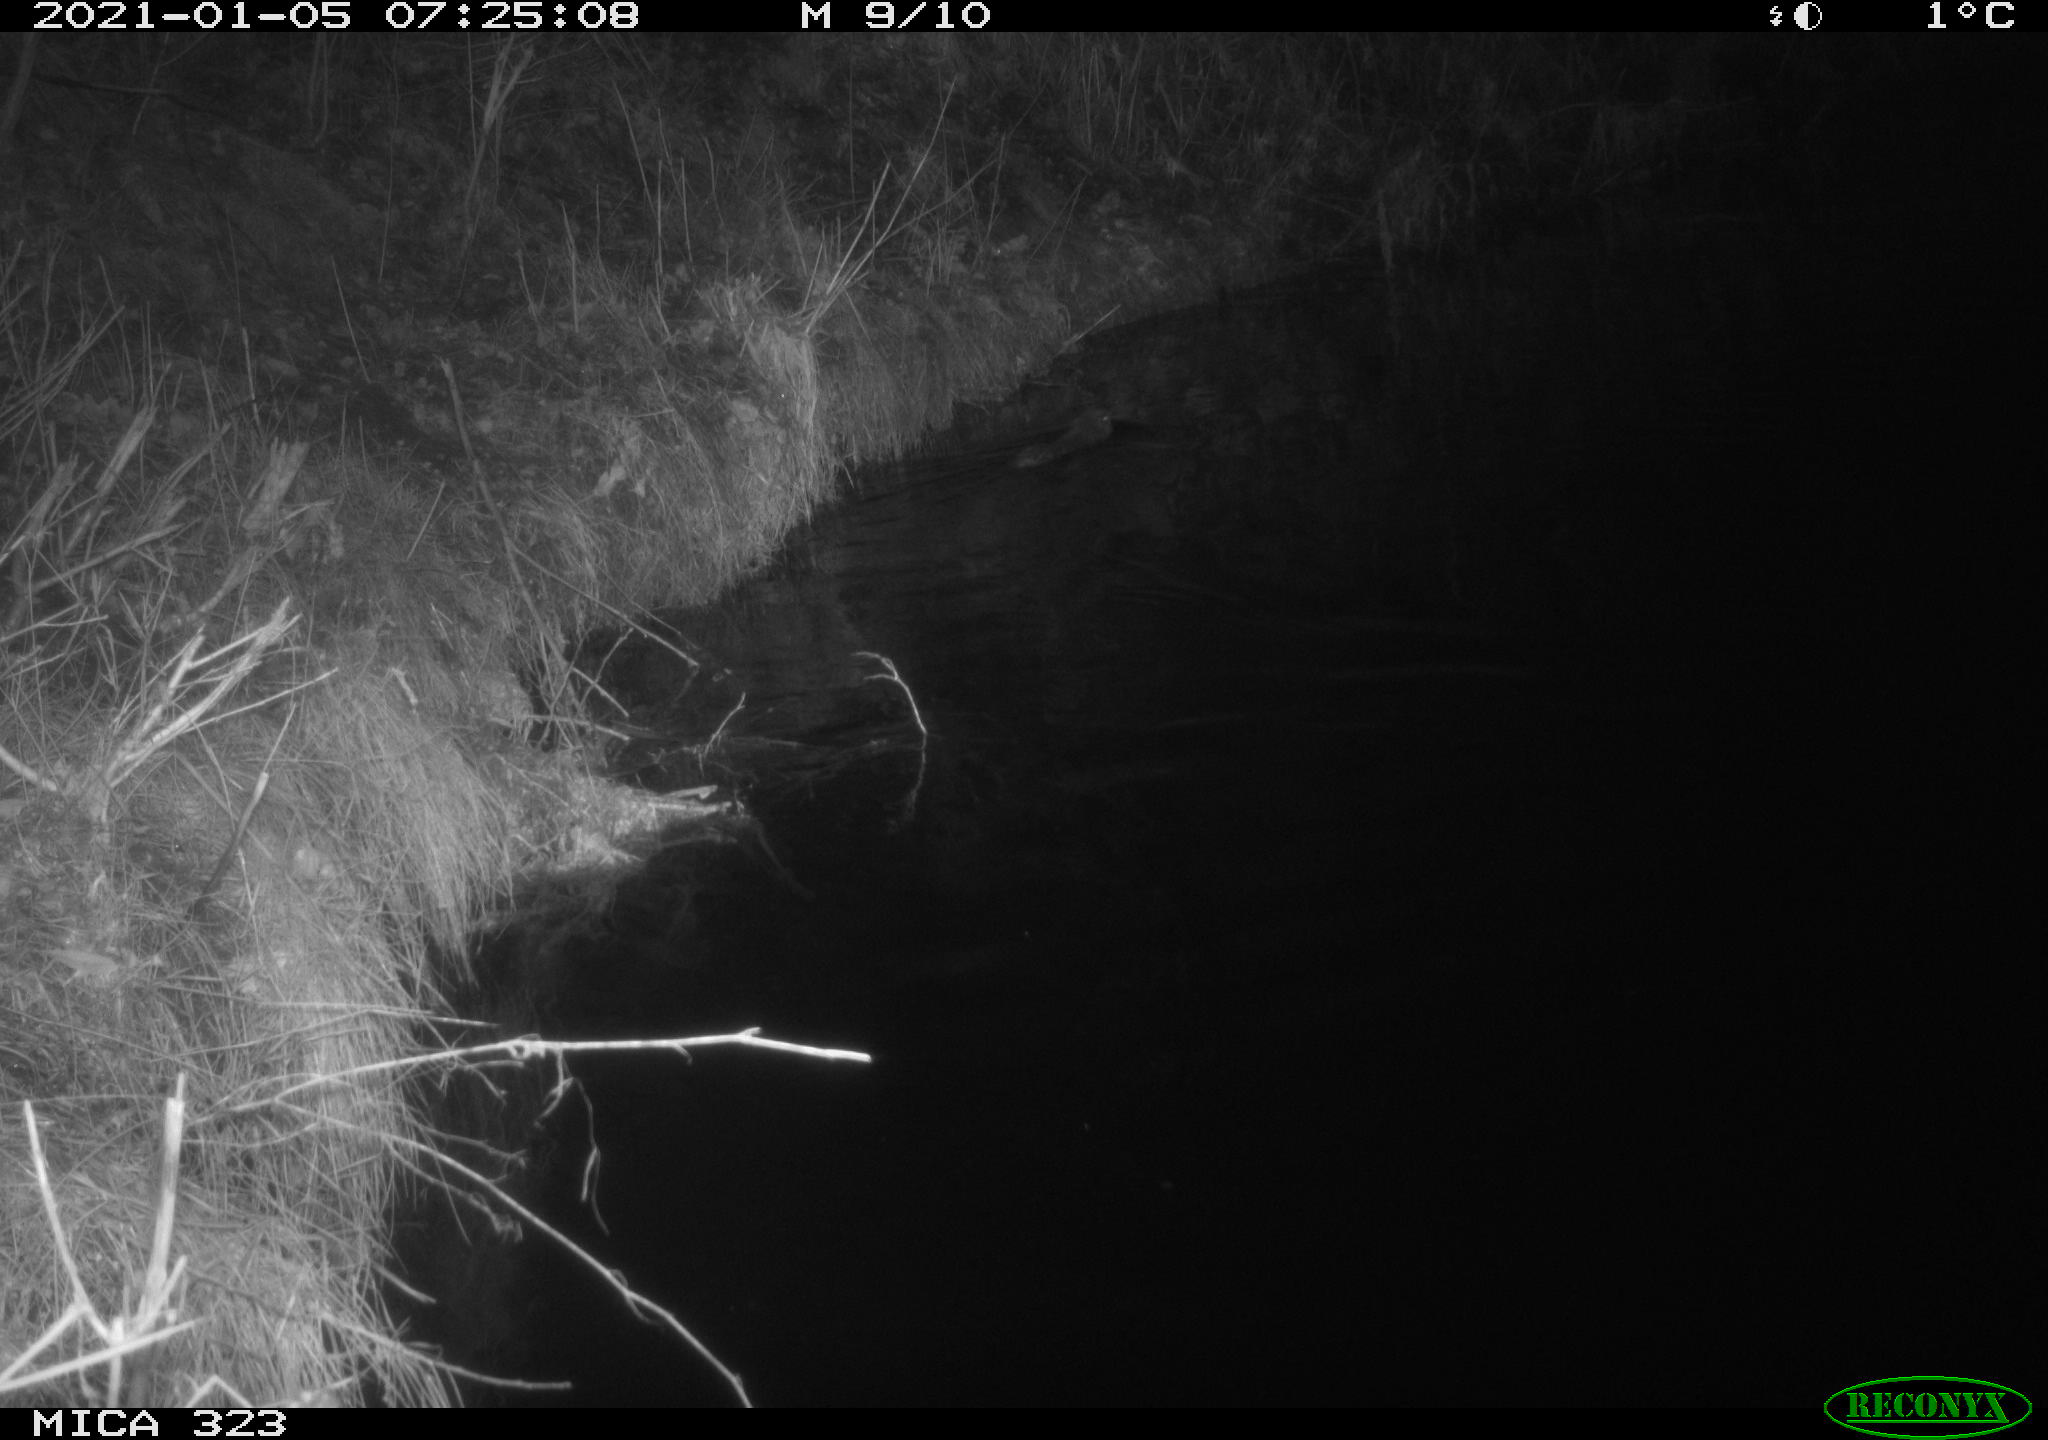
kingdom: Animalia
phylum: Chordata
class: Mammalia
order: Rodentia
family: Cricetidae
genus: Ondatra
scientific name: Ondatra zibethicus
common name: Muskrat
